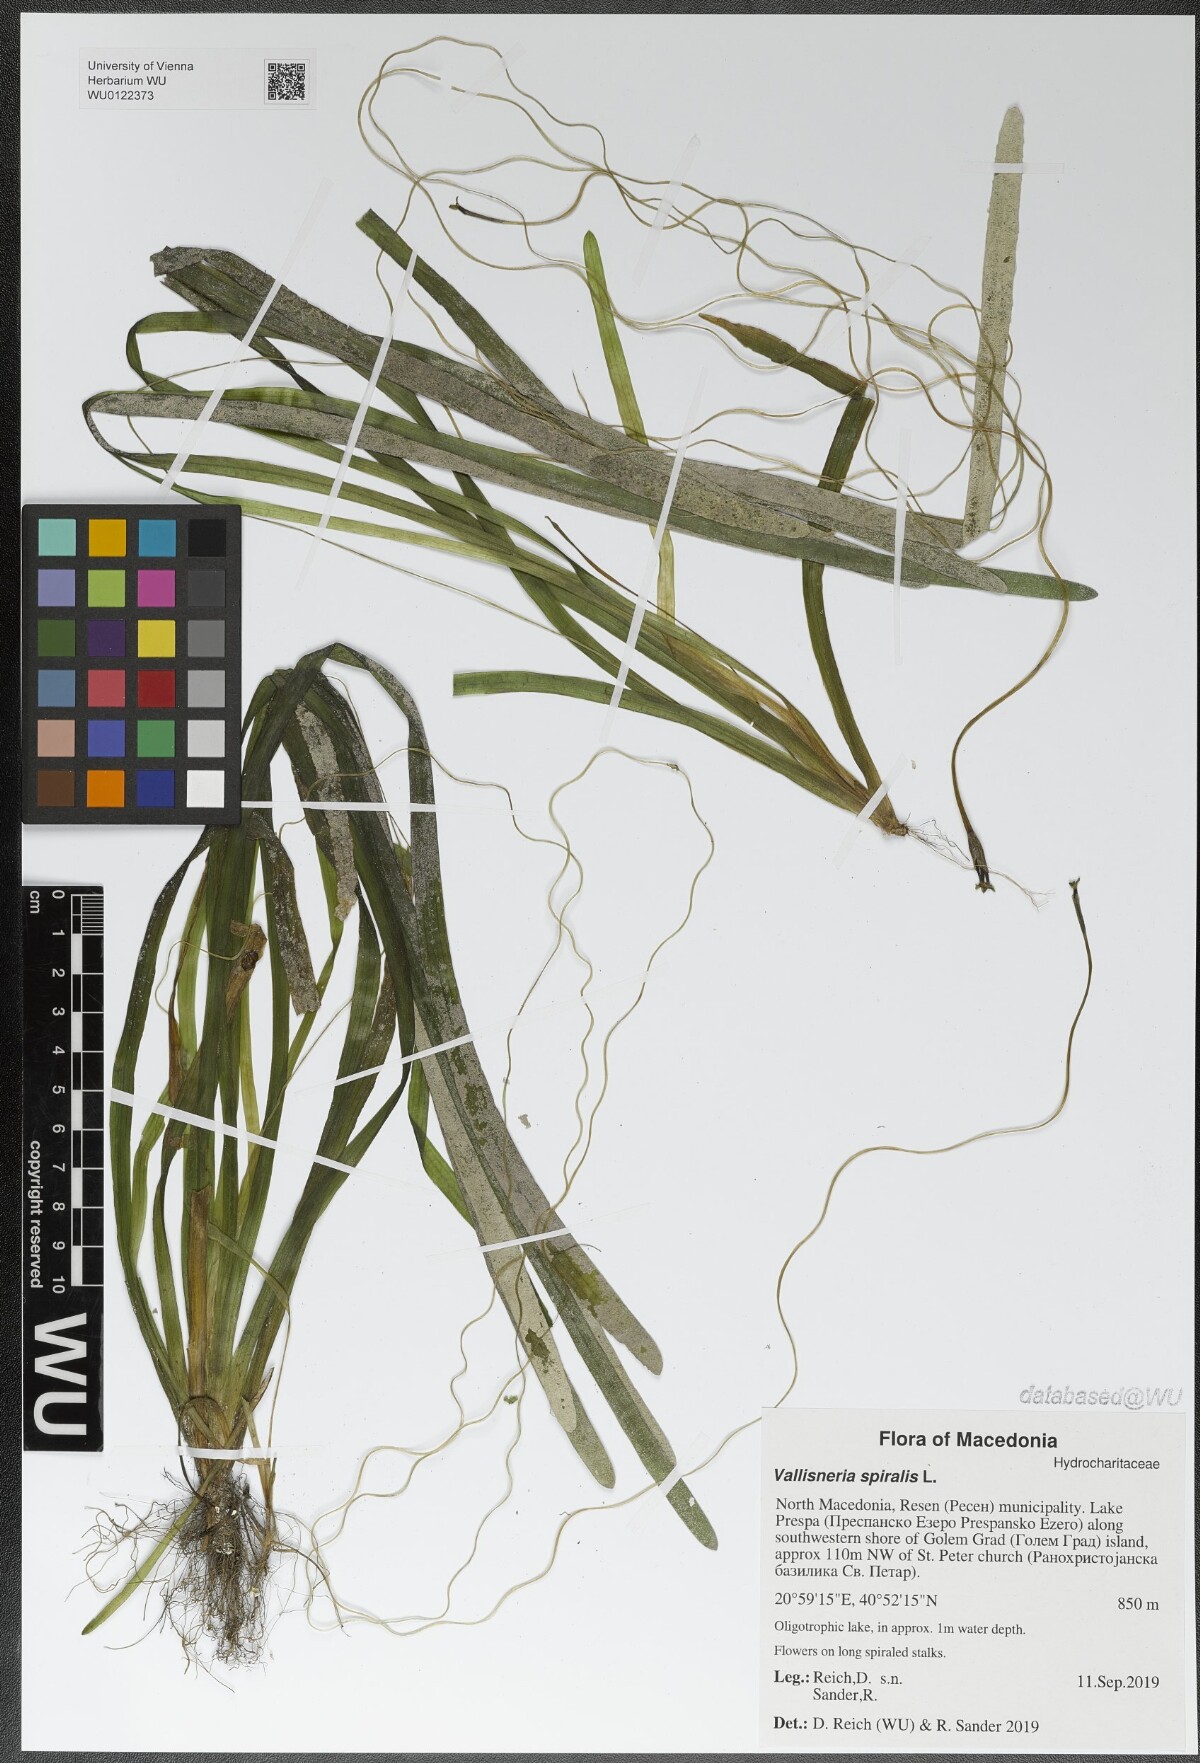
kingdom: Plantae
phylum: Tracheophyta
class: Liliopsida
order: Alismatales
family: Hydrocharitaceae
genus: Vallisneria
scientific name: Vallisneria spiralis
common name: Tapegrass
